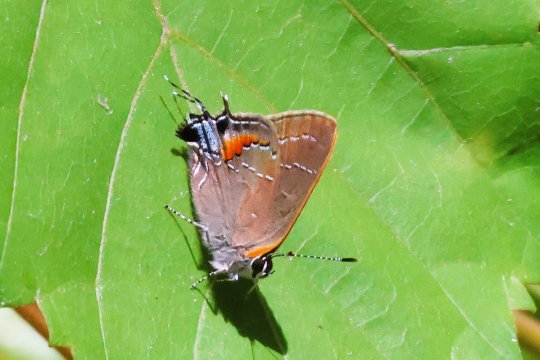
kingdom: Animalia
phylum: Arthropoda
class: Insecta
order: Lepidoptera
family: Lycaenidae
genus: Fixsenia
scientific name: Fixsenia favonius
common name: Oak Hairstreak
